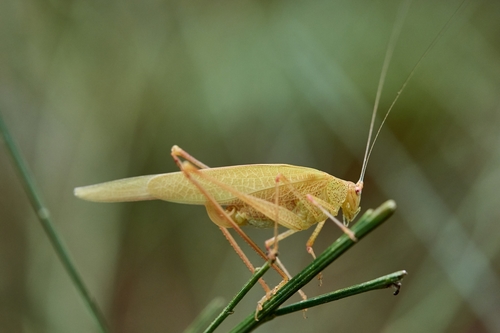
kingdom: Animalia
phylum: Arthropoda
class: Insecta
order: Orthoptera
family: Tettigoniidae
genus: Phaneroptera
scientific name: Phaneroptera nana
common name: Southern sickle bush-cricket
